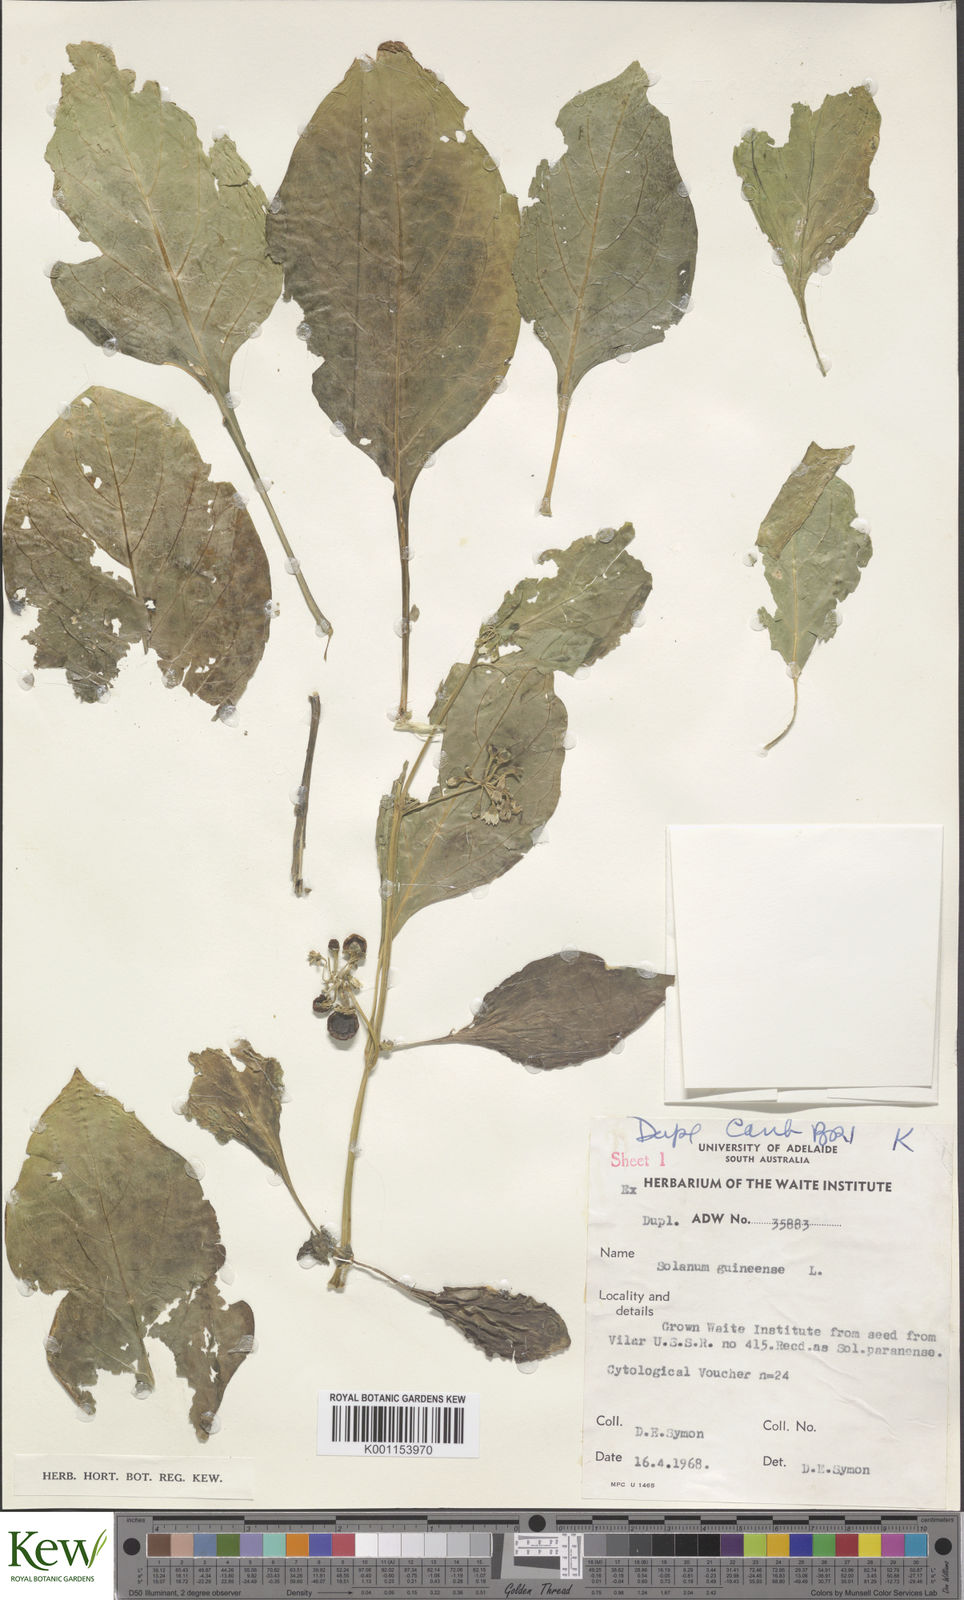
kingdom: Plantae
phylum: Tracheophyta
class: Magnoliopsida
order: Solanales
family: Solanaceae
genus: Solanum
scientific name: Solanum scabrum
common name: Garden-huckleberry
